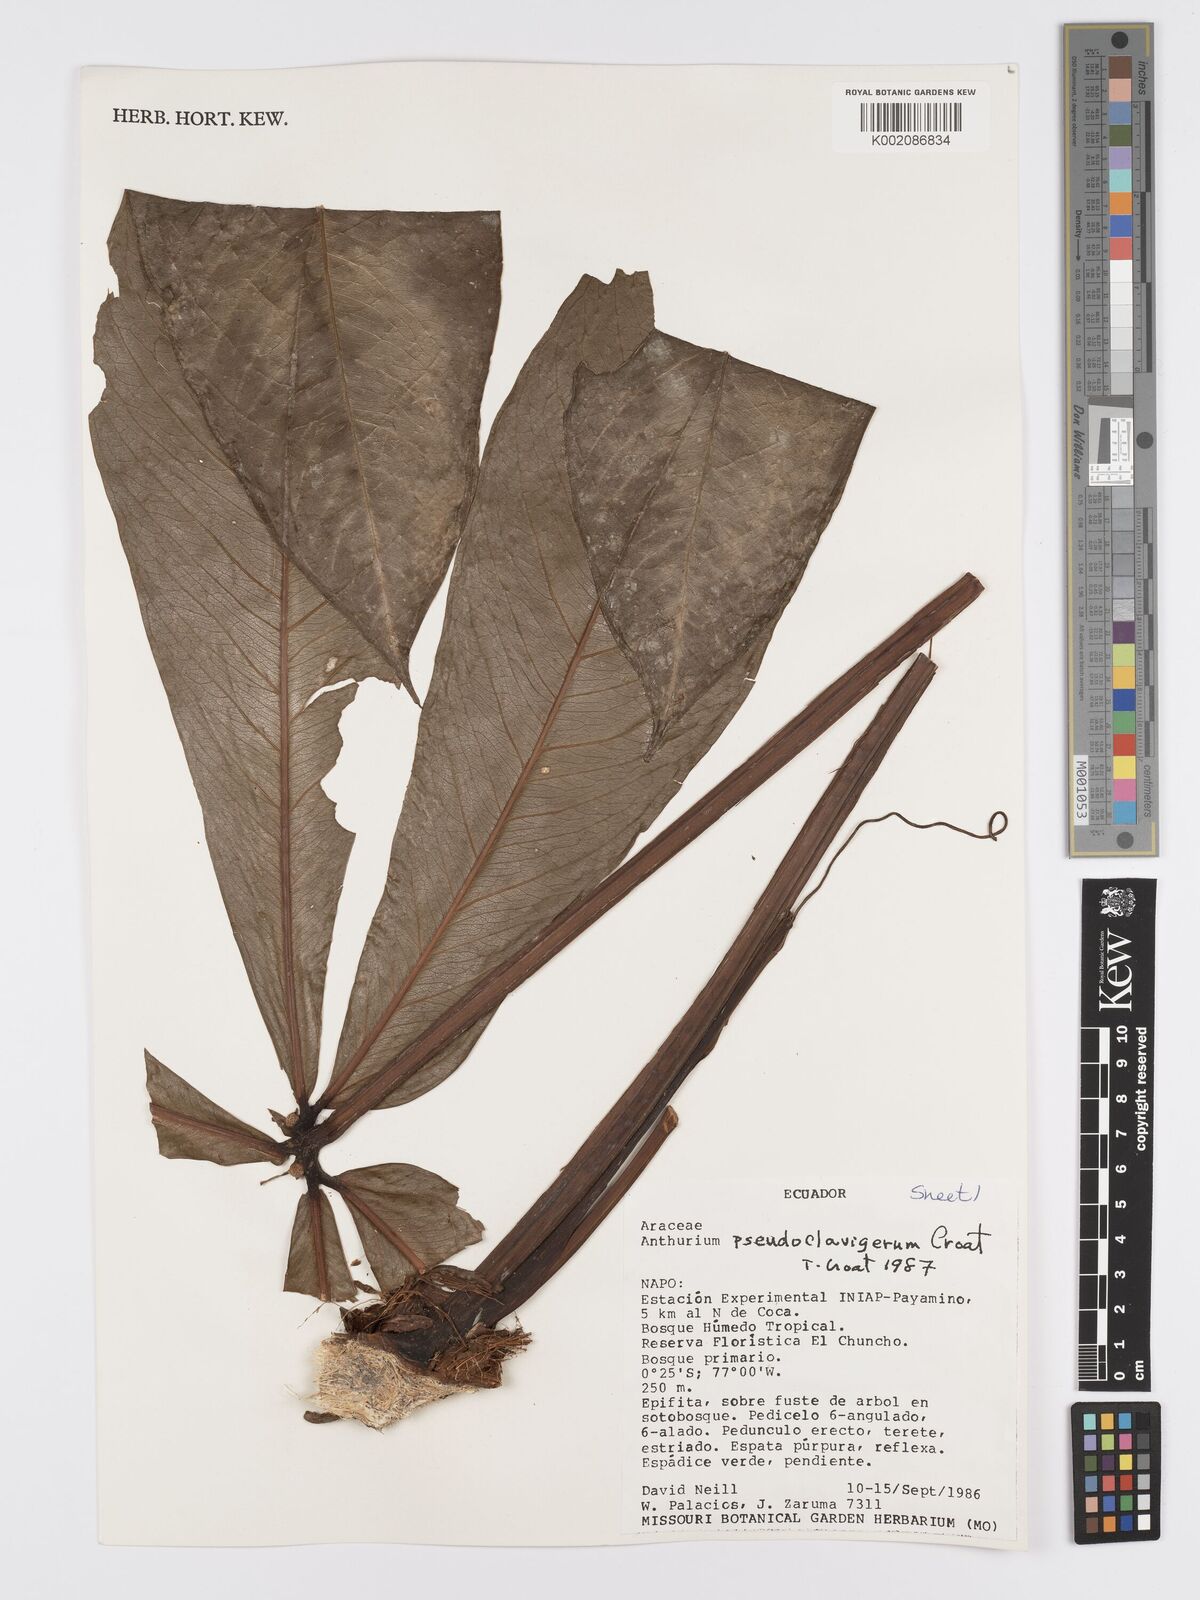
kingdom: Plantae
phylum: Tracheophyta
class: Liliopsida
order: Alismatales
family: Araceae
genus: Anthurium
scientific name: Anthurium
